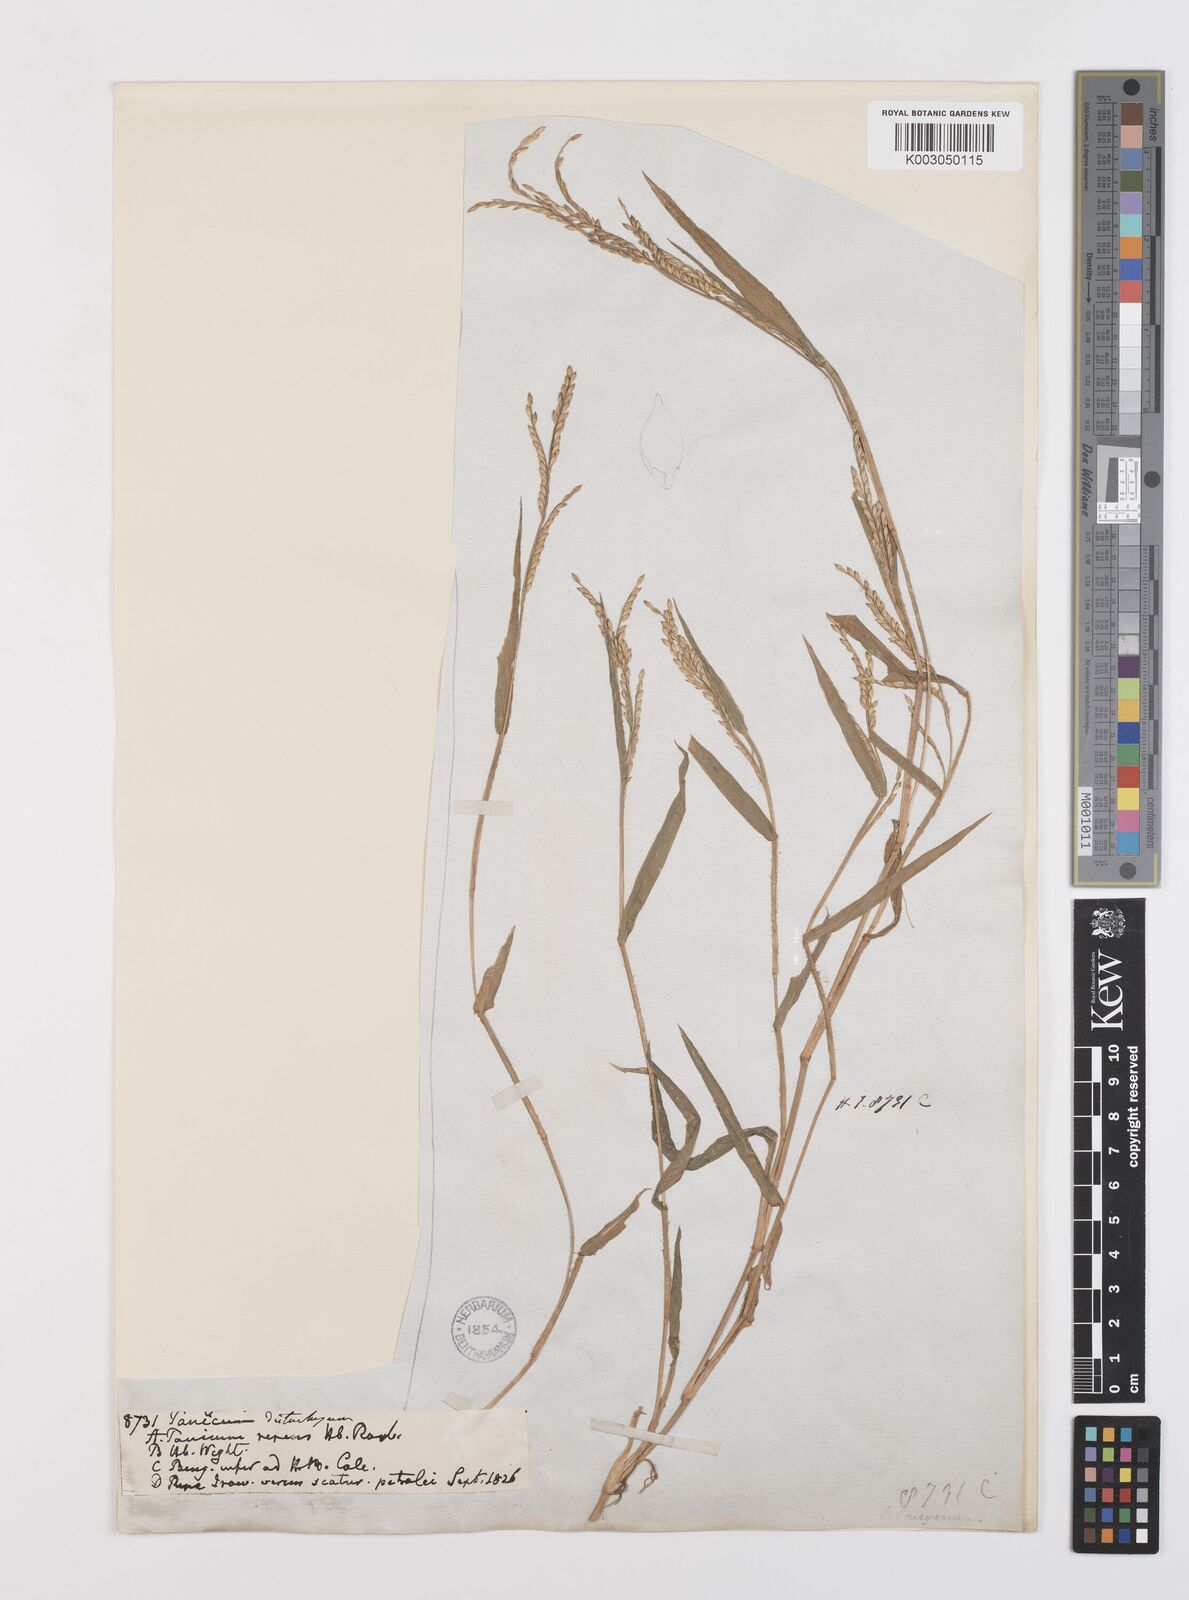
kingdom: Plantae
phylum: Tracheophyta
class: Liliopsida
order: Poales
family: Poaceae
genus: Urochloa
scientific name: Urochloa subquadripara
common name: Armgrass millet
